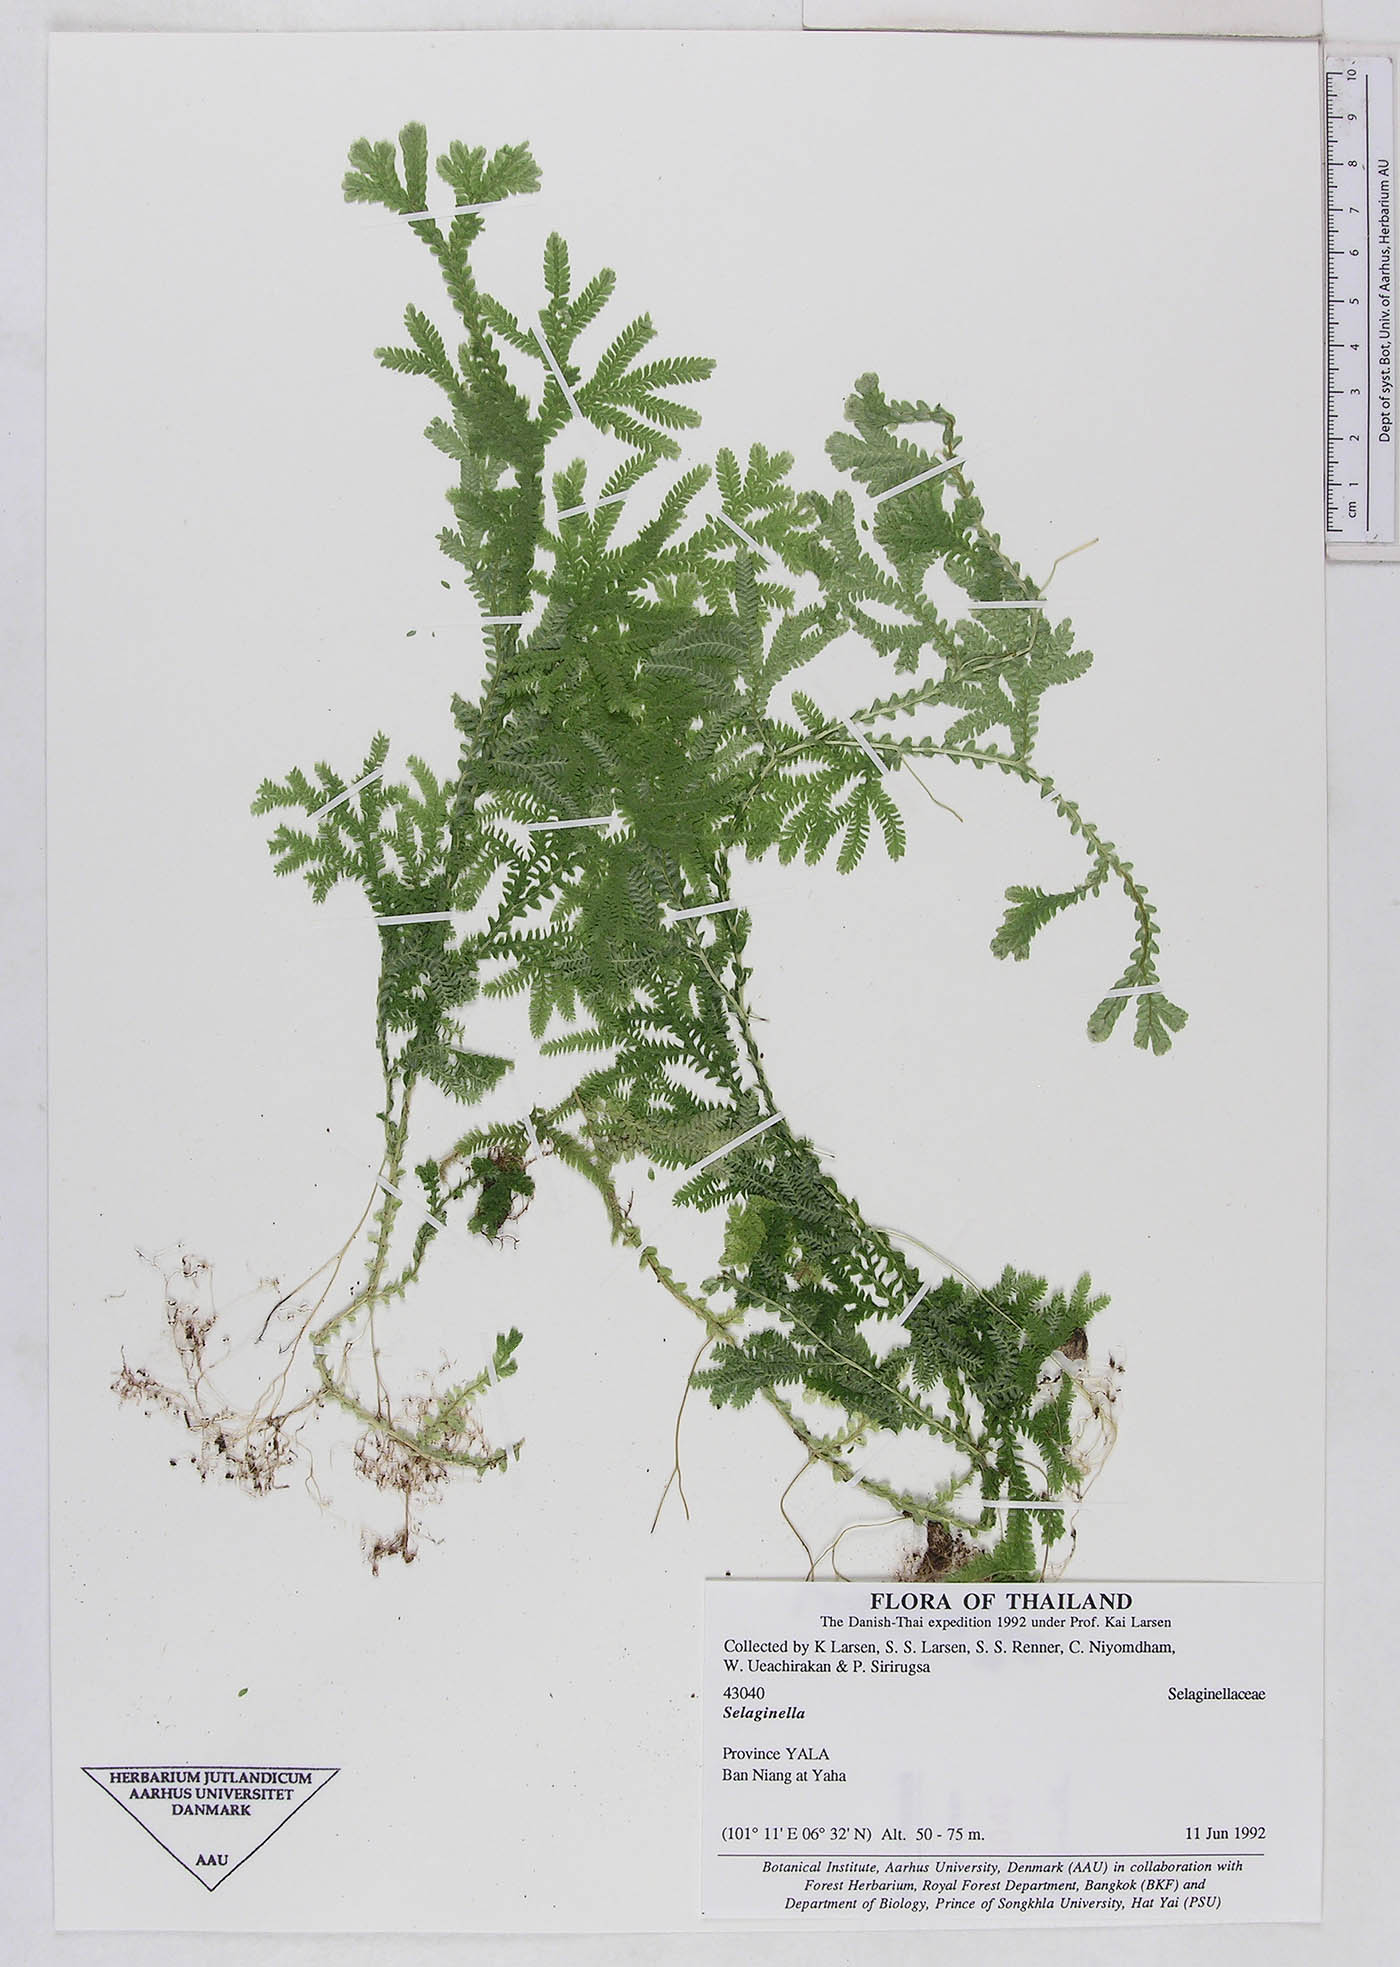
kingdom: Plantae
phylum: Tracheophyta
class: Lycopodiopsida
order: Selaginellales
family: Selaginellaceae
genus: Selaginella
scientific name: Selaginella
